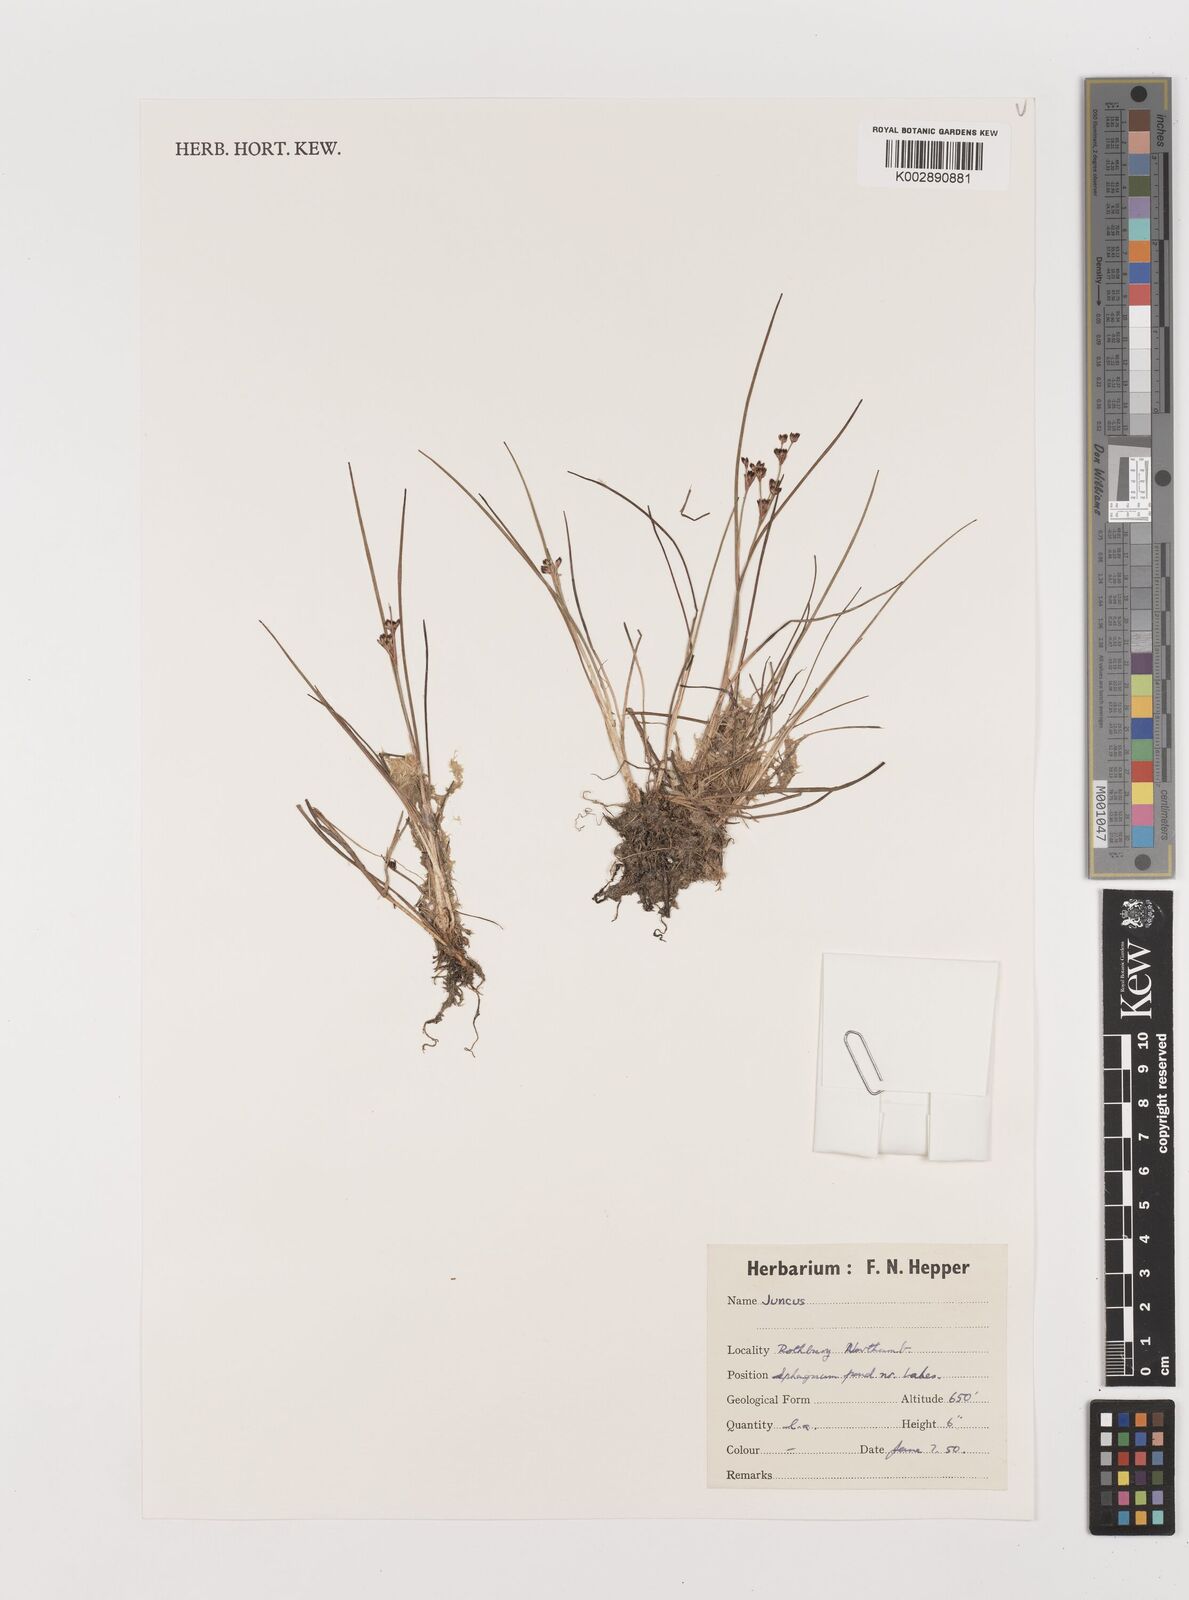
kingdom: Plantae
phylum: Tracheophyta
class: Liliopsida
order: Poales
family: Juncaceae
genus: Juncus
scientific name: Juncus
